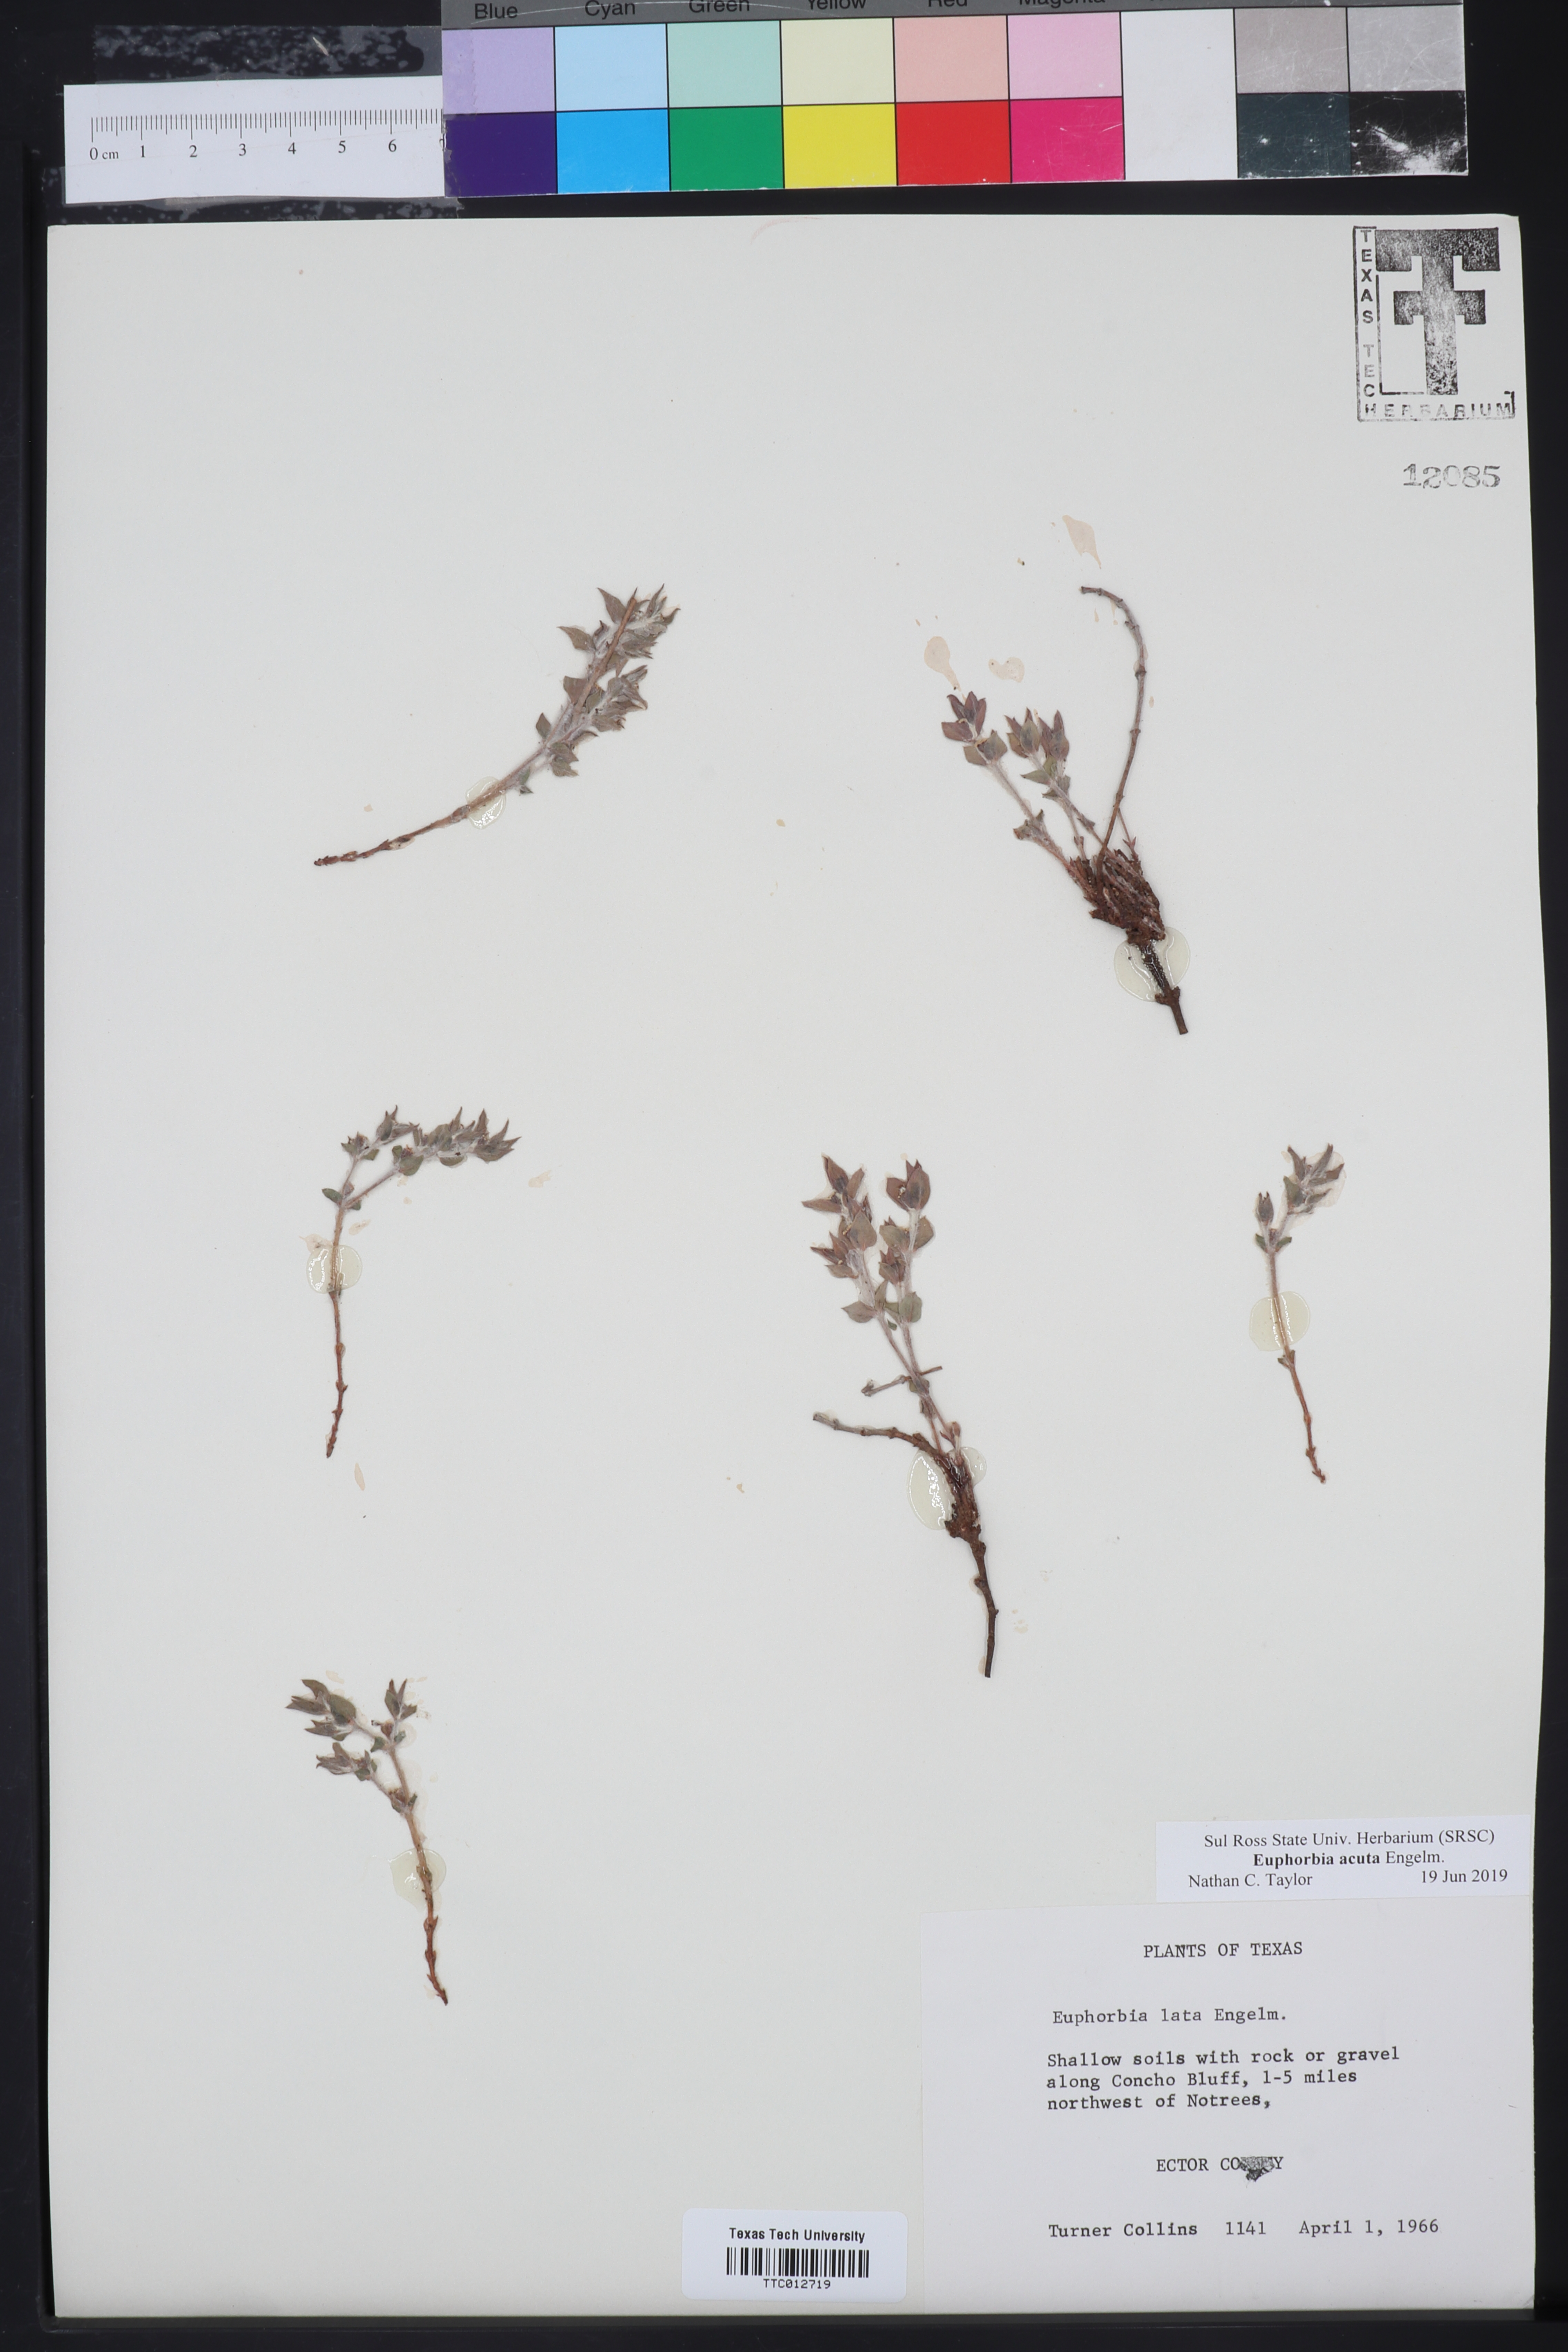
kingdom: Plantae
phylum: Tracheophyta
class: Magnoliopsida
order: Malpighiales
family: Euphorbiaceae
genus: Euphorbia
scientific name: Euphorbia acuta
